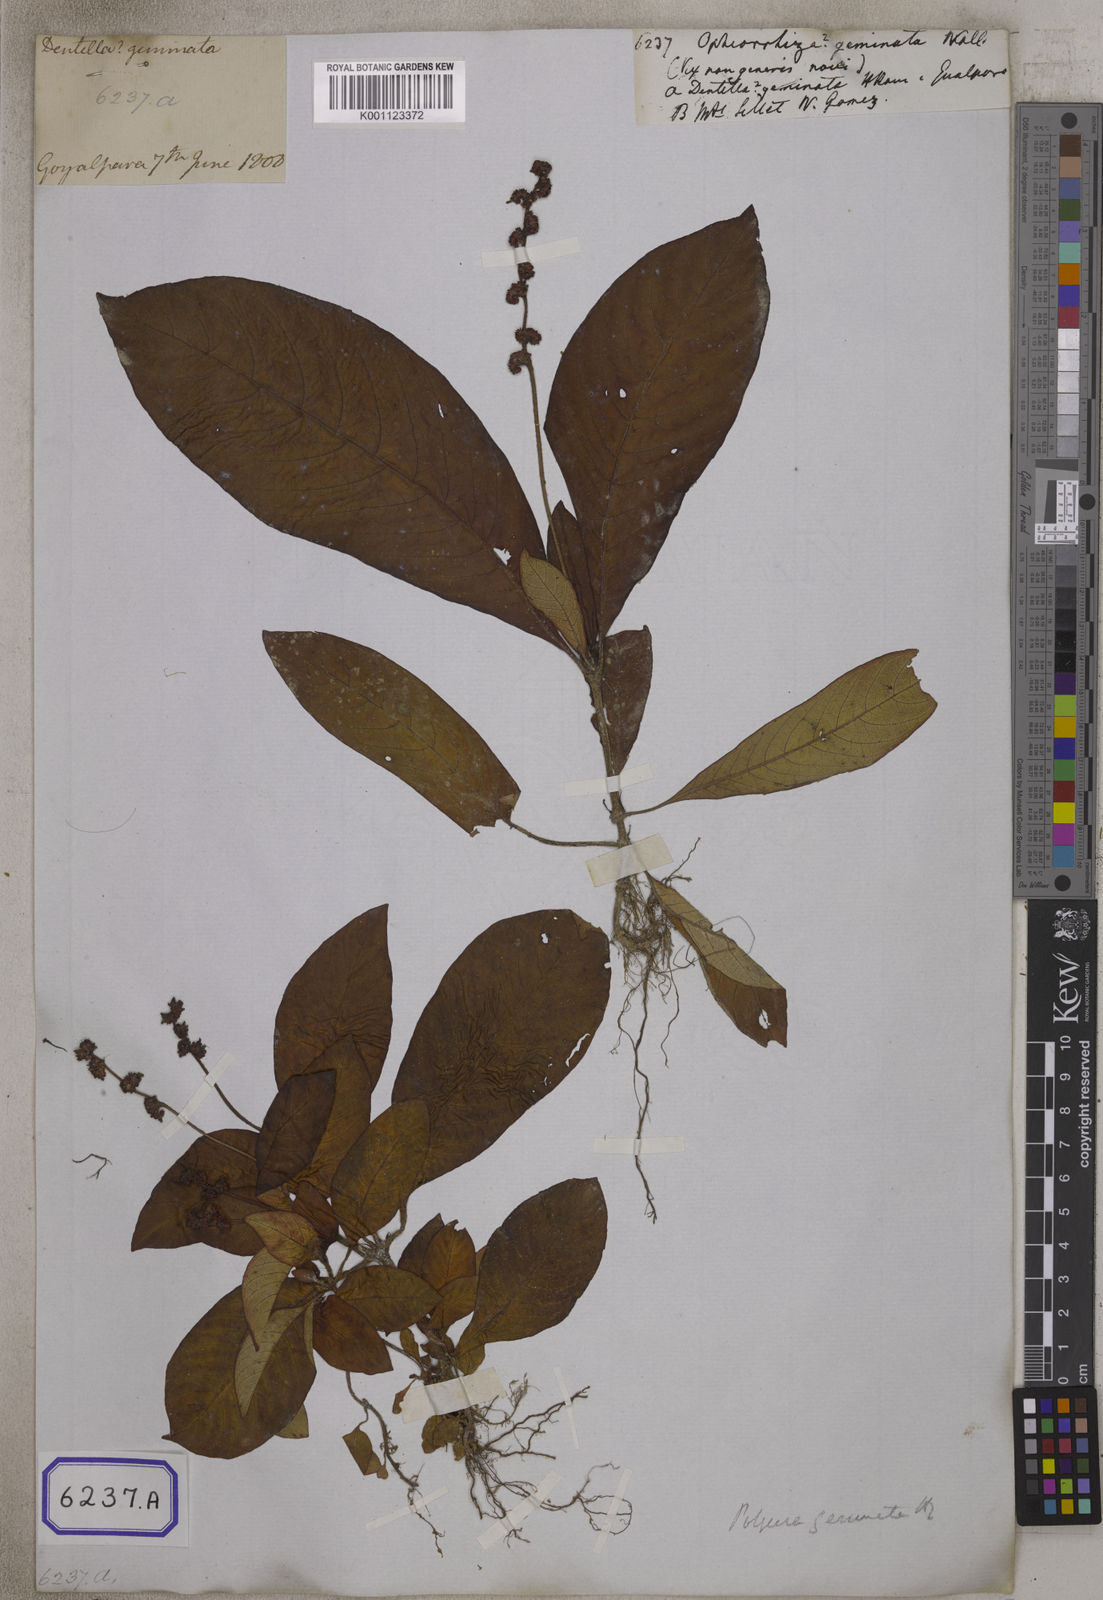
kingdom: Plantae
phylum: Tracheophyta
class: Magnoliopsida
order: Gentianales
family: Rubiaceae
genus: Ophiorrhiza
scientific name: Ophiorrhiza
